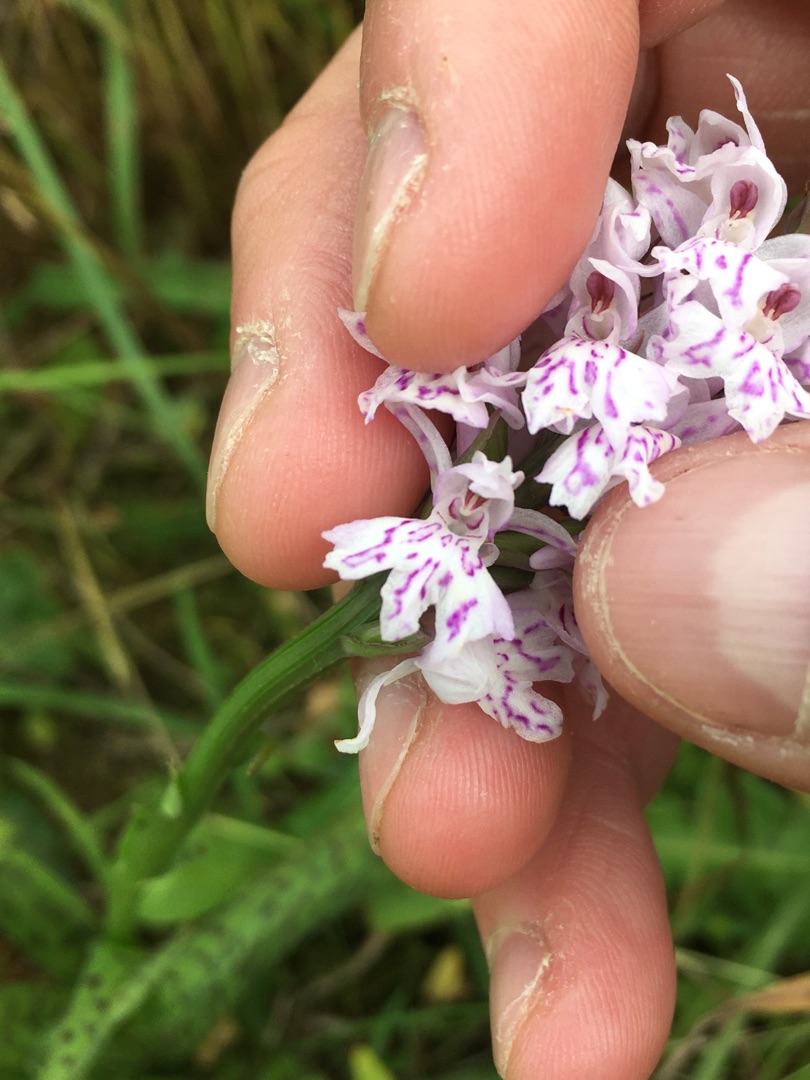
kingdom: Plantae
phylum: Tracheophyta
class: Liliopsida
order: Asparagales
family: Orchidaceae
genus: Dactylorhiza
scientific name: Dactylorhiza maculata
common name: Skov-gøgeurt
